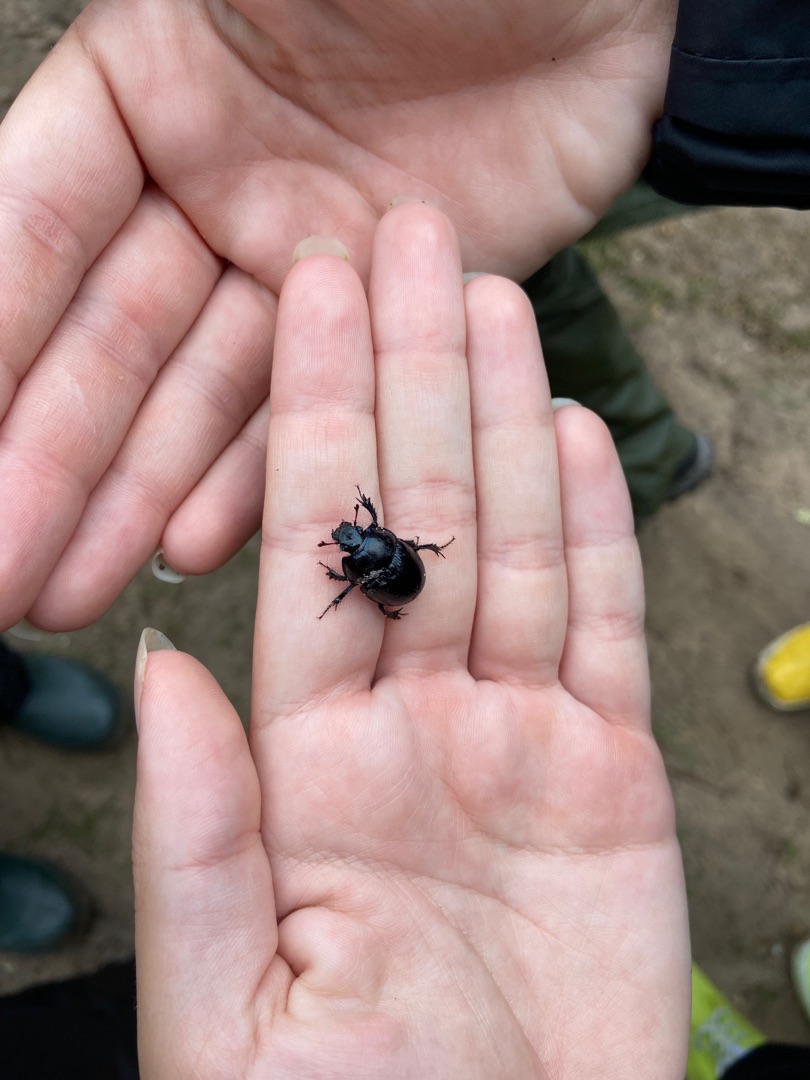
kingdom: Animalia
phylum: Arthropoda
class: Insecta
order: Coleoptera
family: Geotrupidae
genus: Anoplotrupes
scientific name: Anoplotrupes stercorosus
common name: Skovskarnbasse
